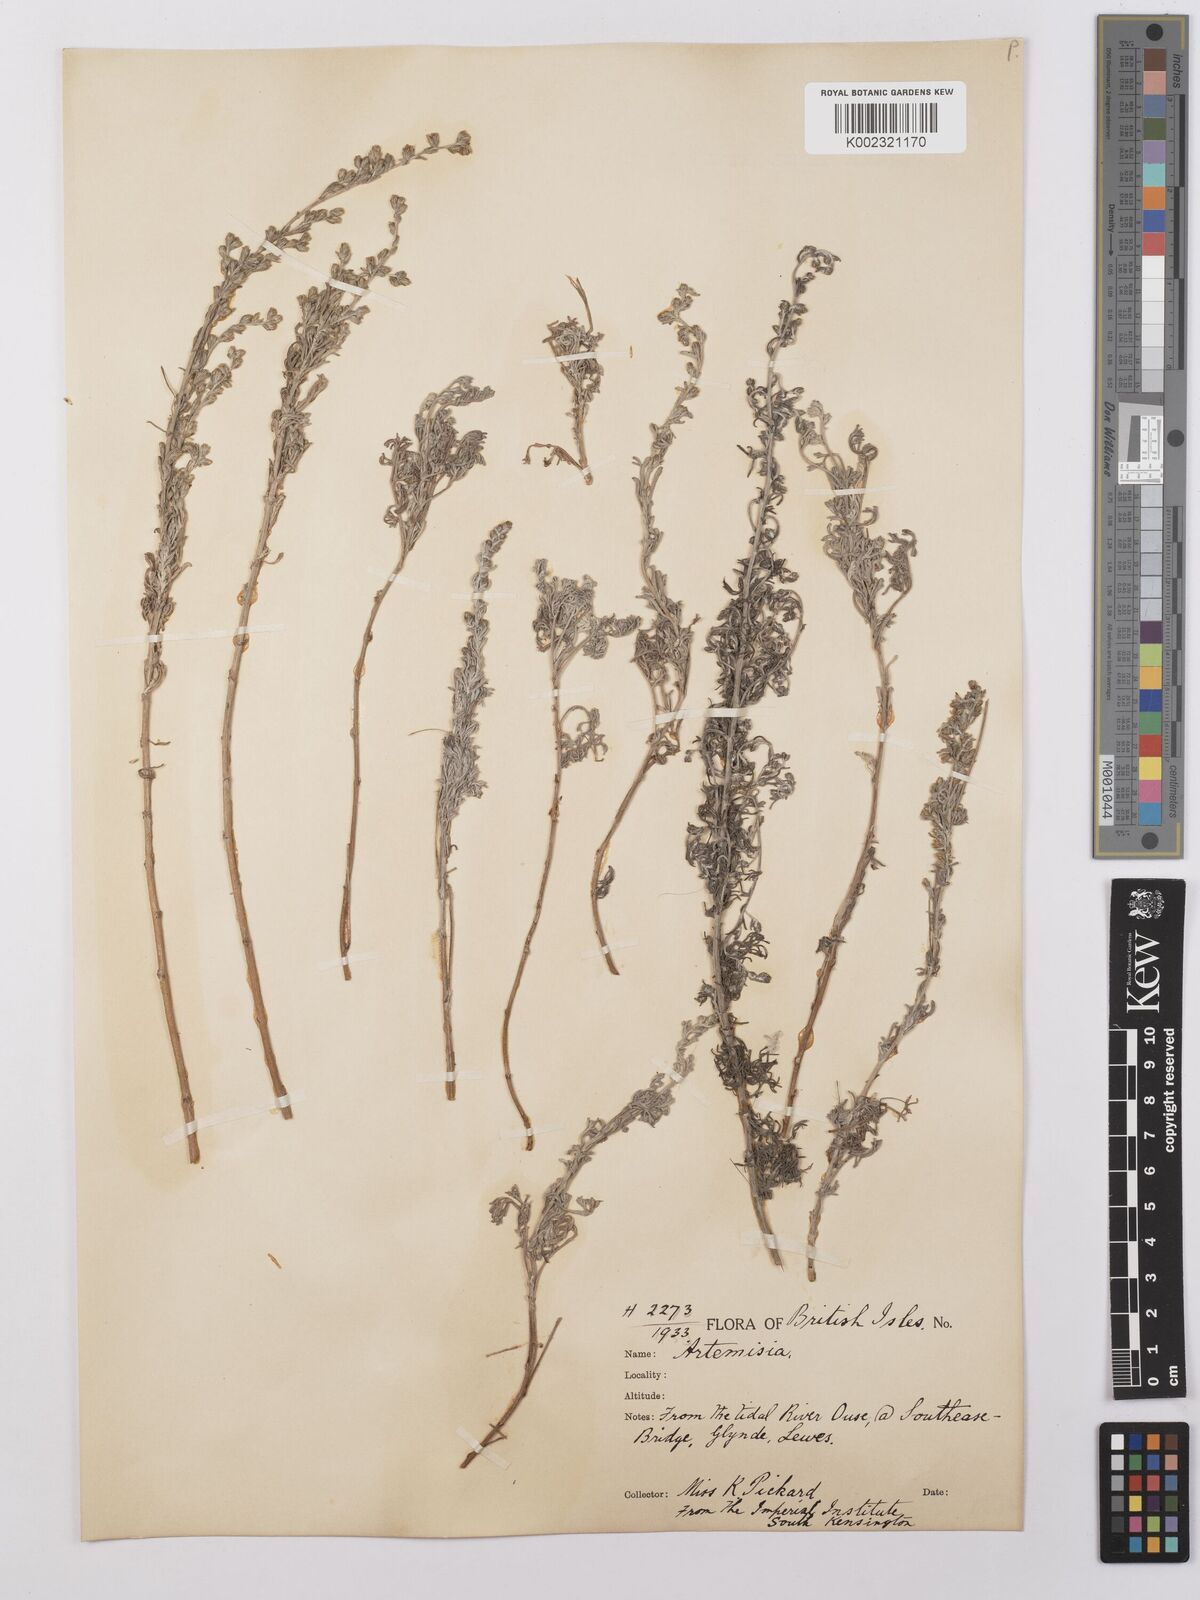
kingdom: Plantae
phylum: Tracheophyta
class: Magnoliopsida
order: Asterales
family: Asteraceae
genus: Artemisia
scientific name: Artemisia maritima
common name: Wormseed
